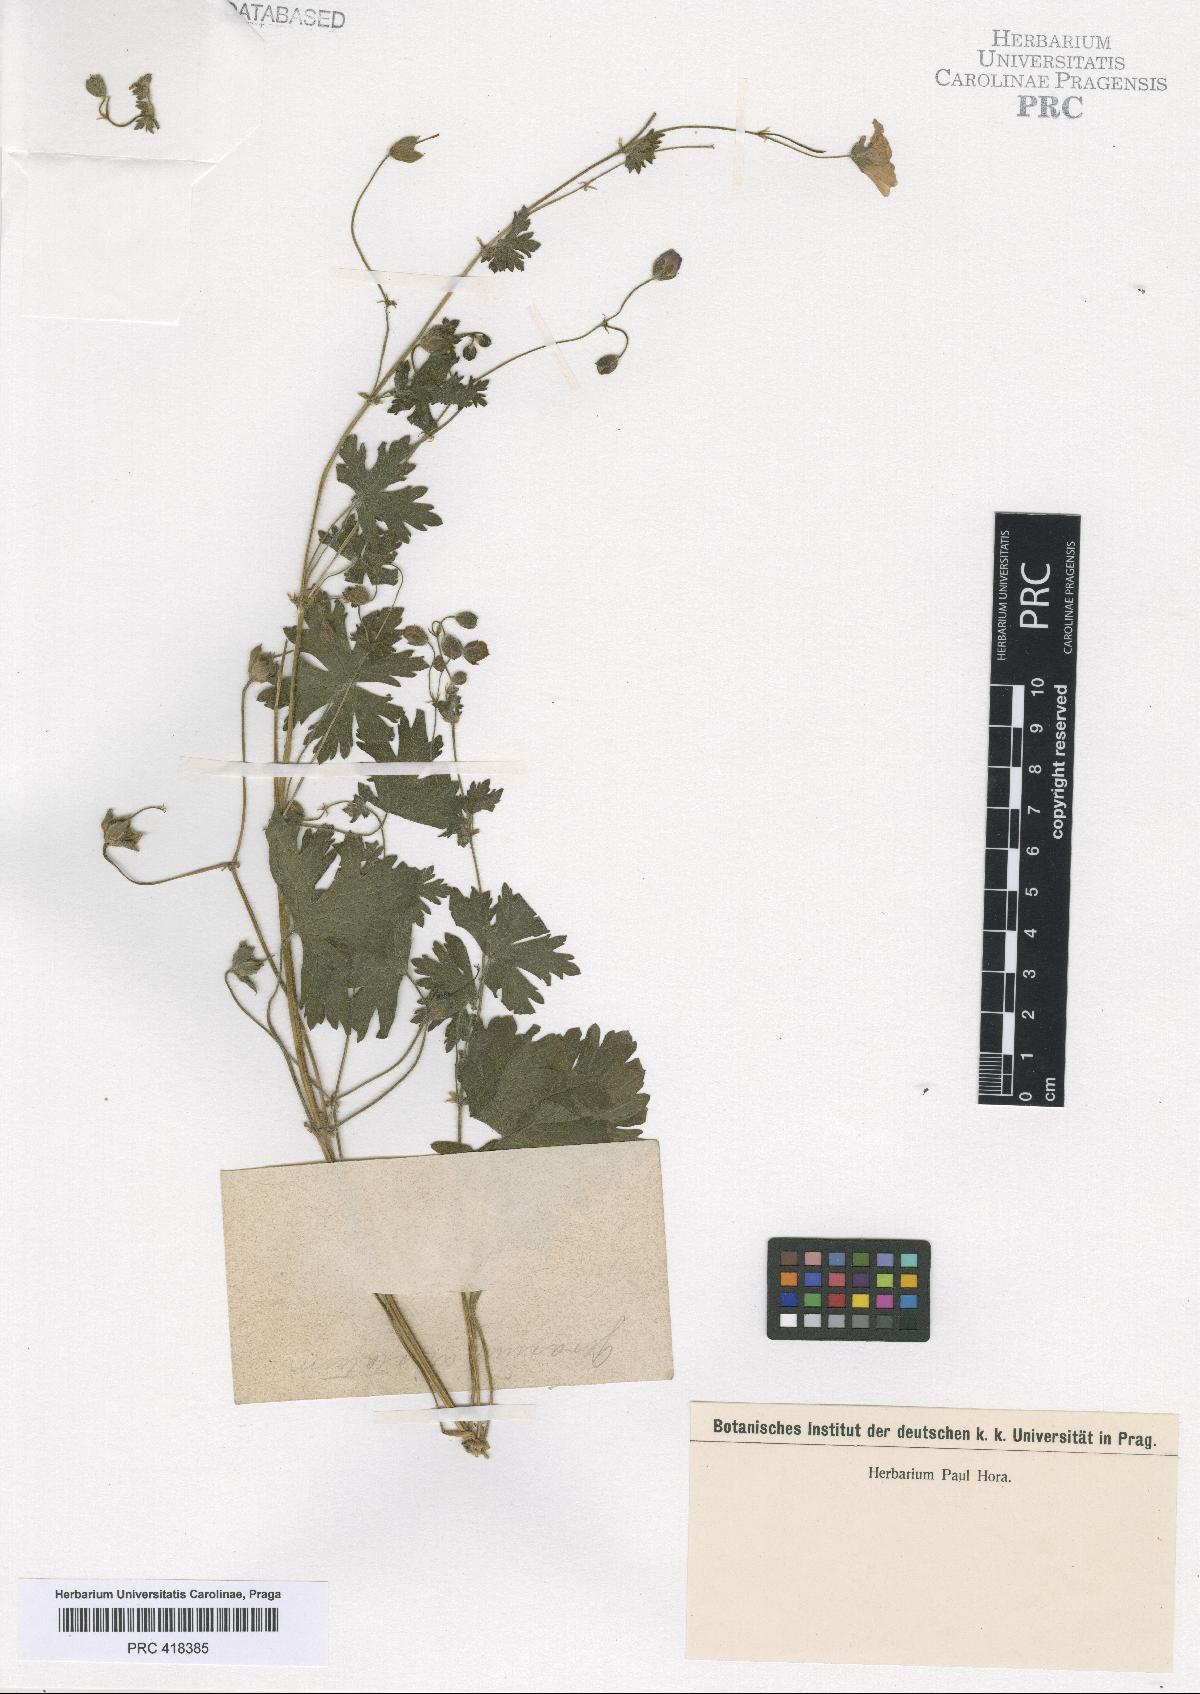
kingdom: Plantae
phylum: Tracheophyta
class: Magnoliopsida
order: Geraniales
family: Geraniaceae
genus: Geranium
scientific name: Geranium albanum
